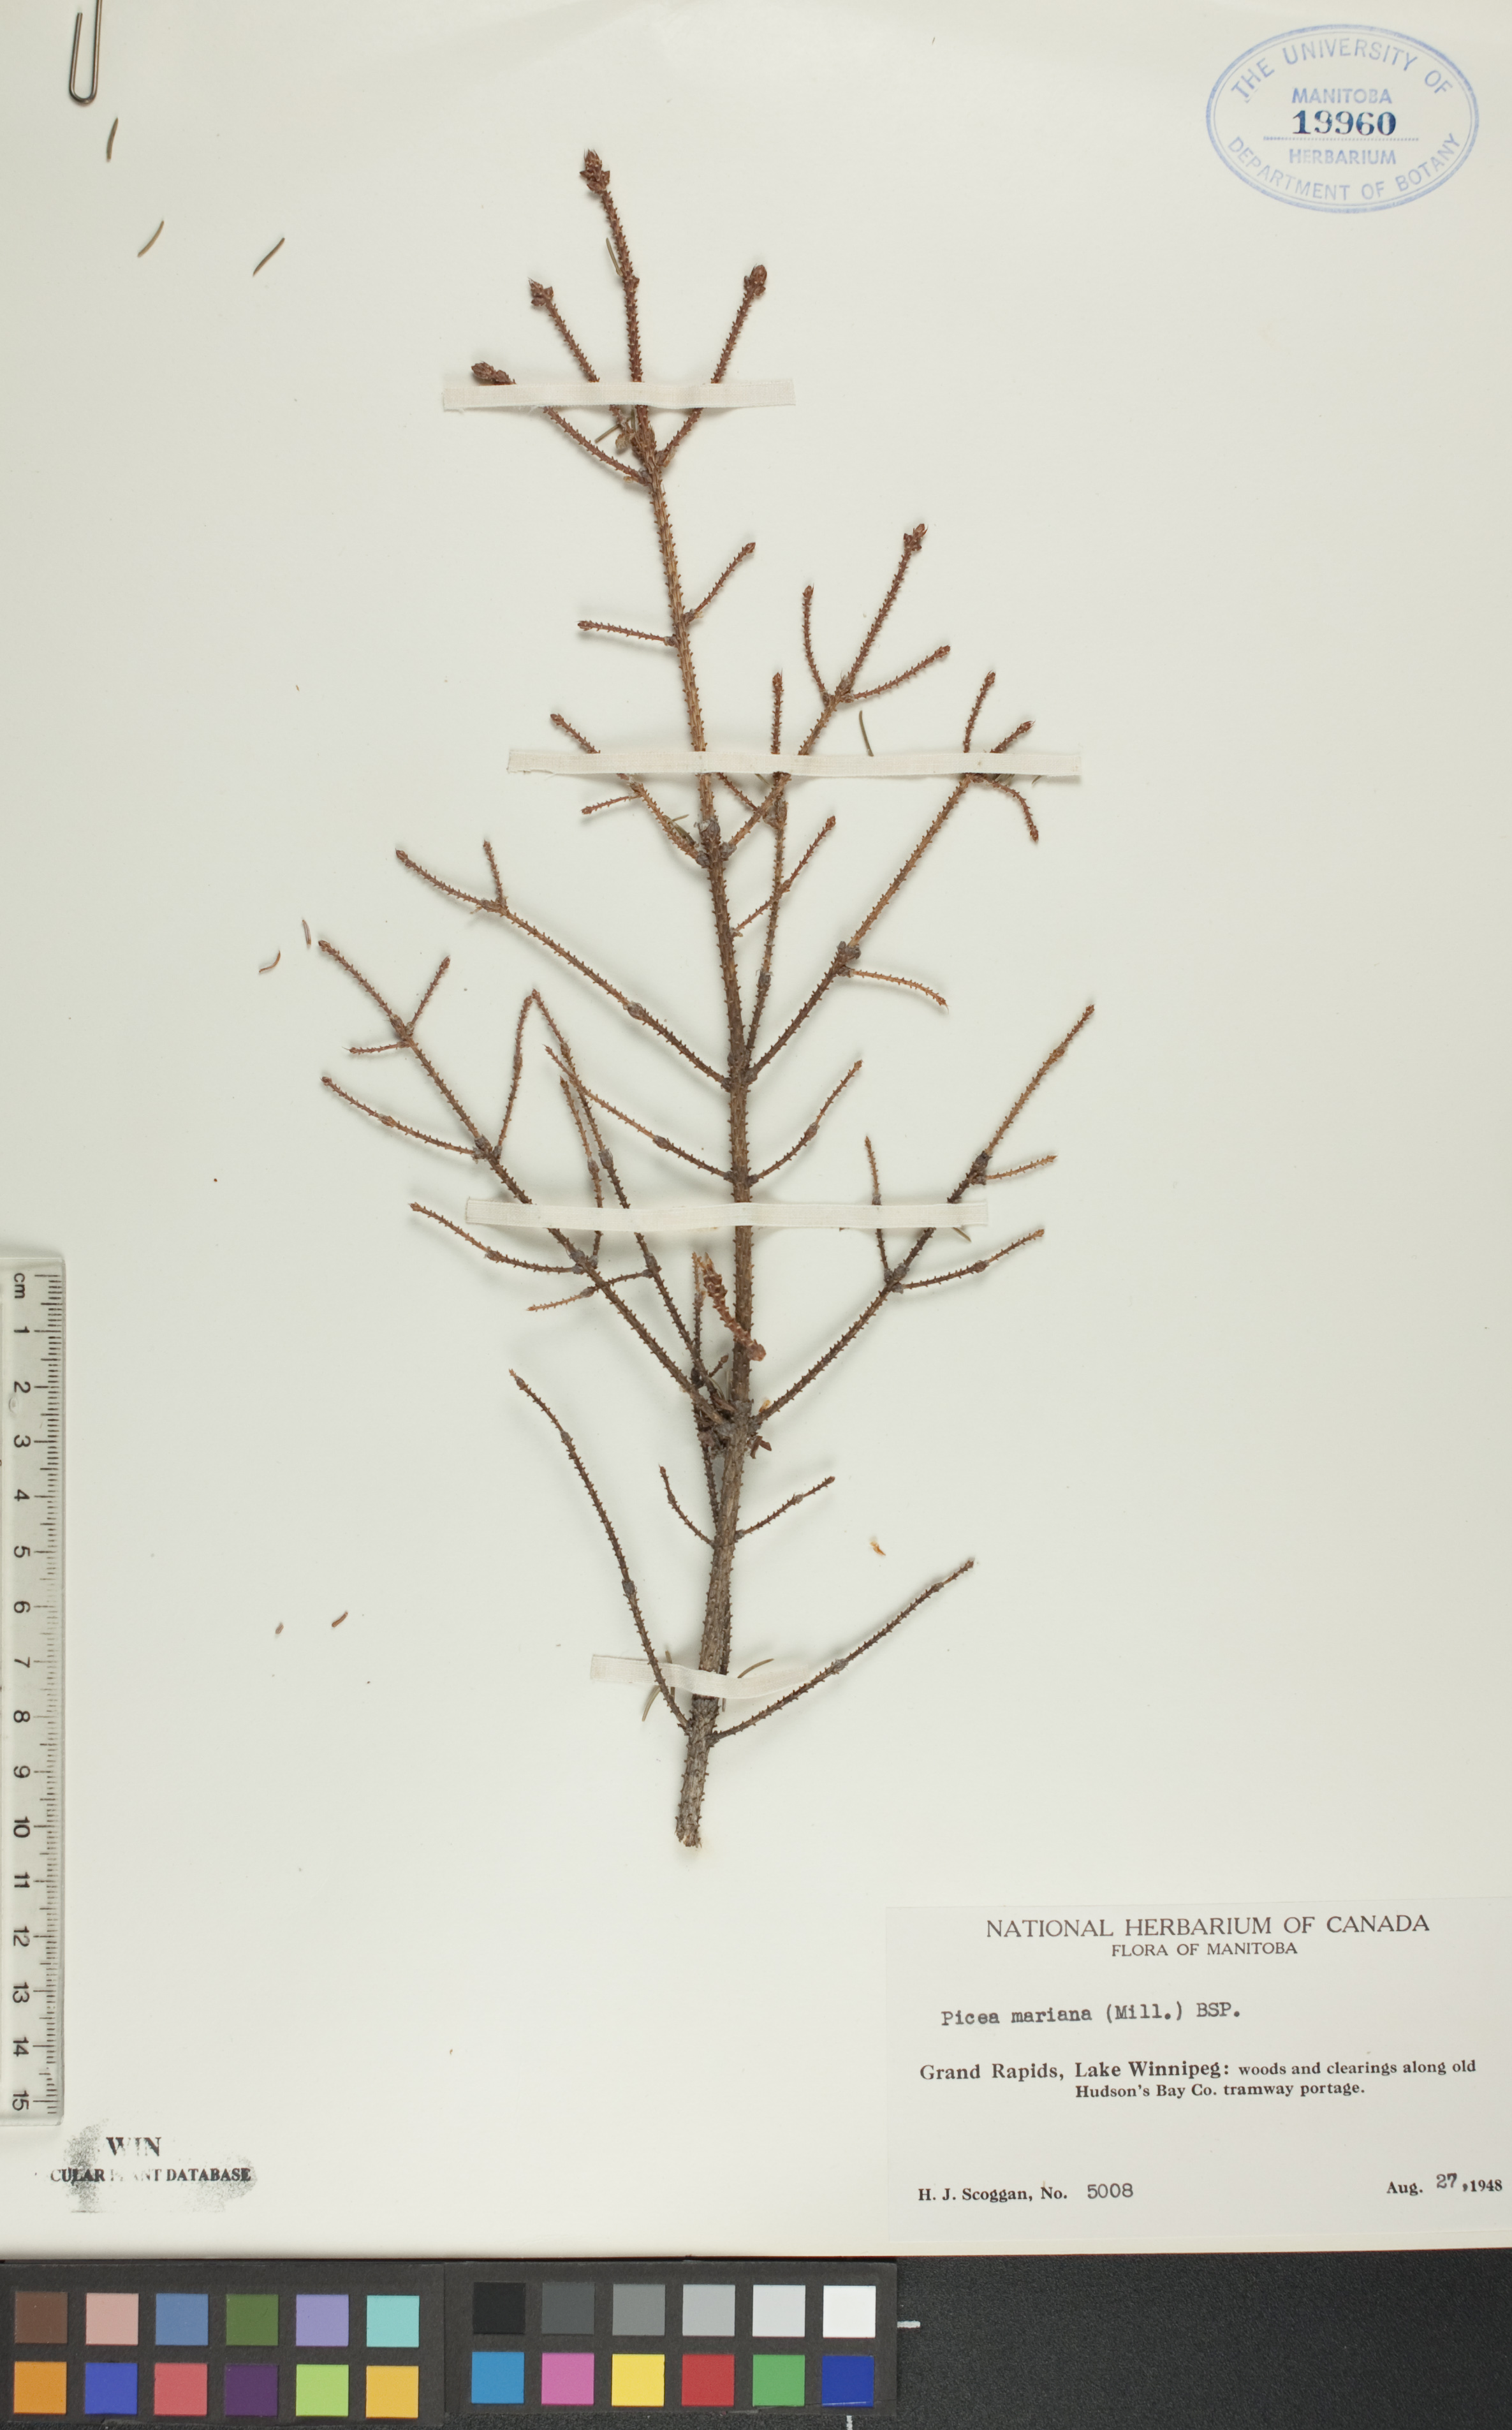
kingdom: Plantae
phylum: Tracheophyta
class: Pinopsida
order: Pinales
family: Pinaceae
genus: Picea
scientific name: Picea mariana
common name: Black spruce
